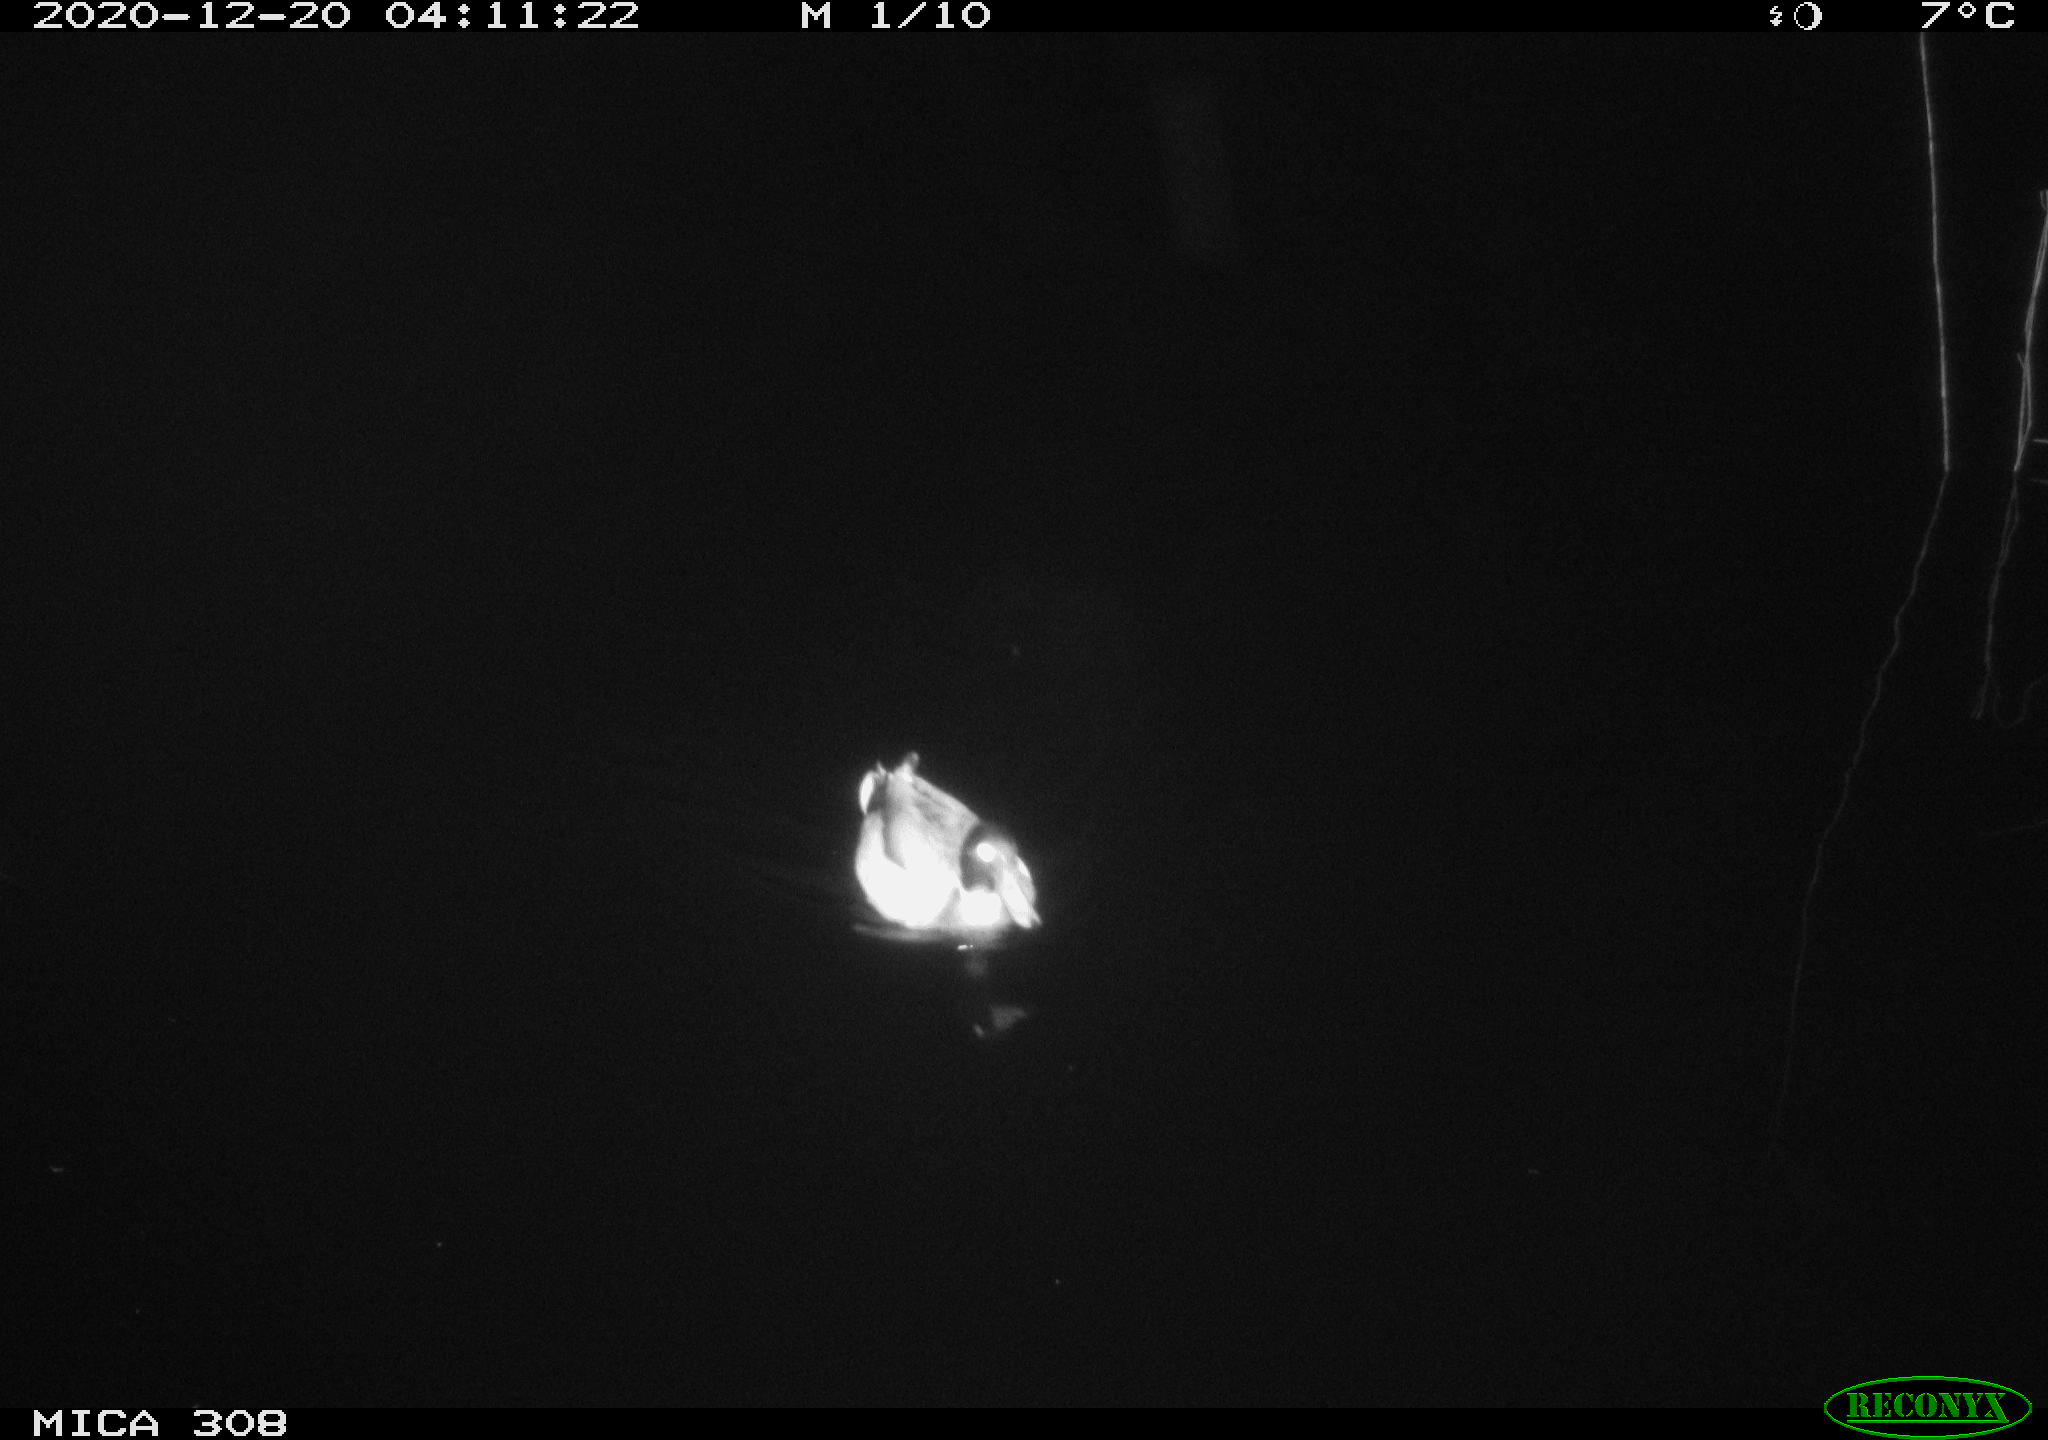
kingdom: Animalia
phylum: Chordata
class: Aves
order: Anseriformes
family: Anatidae
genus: Anas
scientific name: Anas platyrhynchos
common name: Mallard
